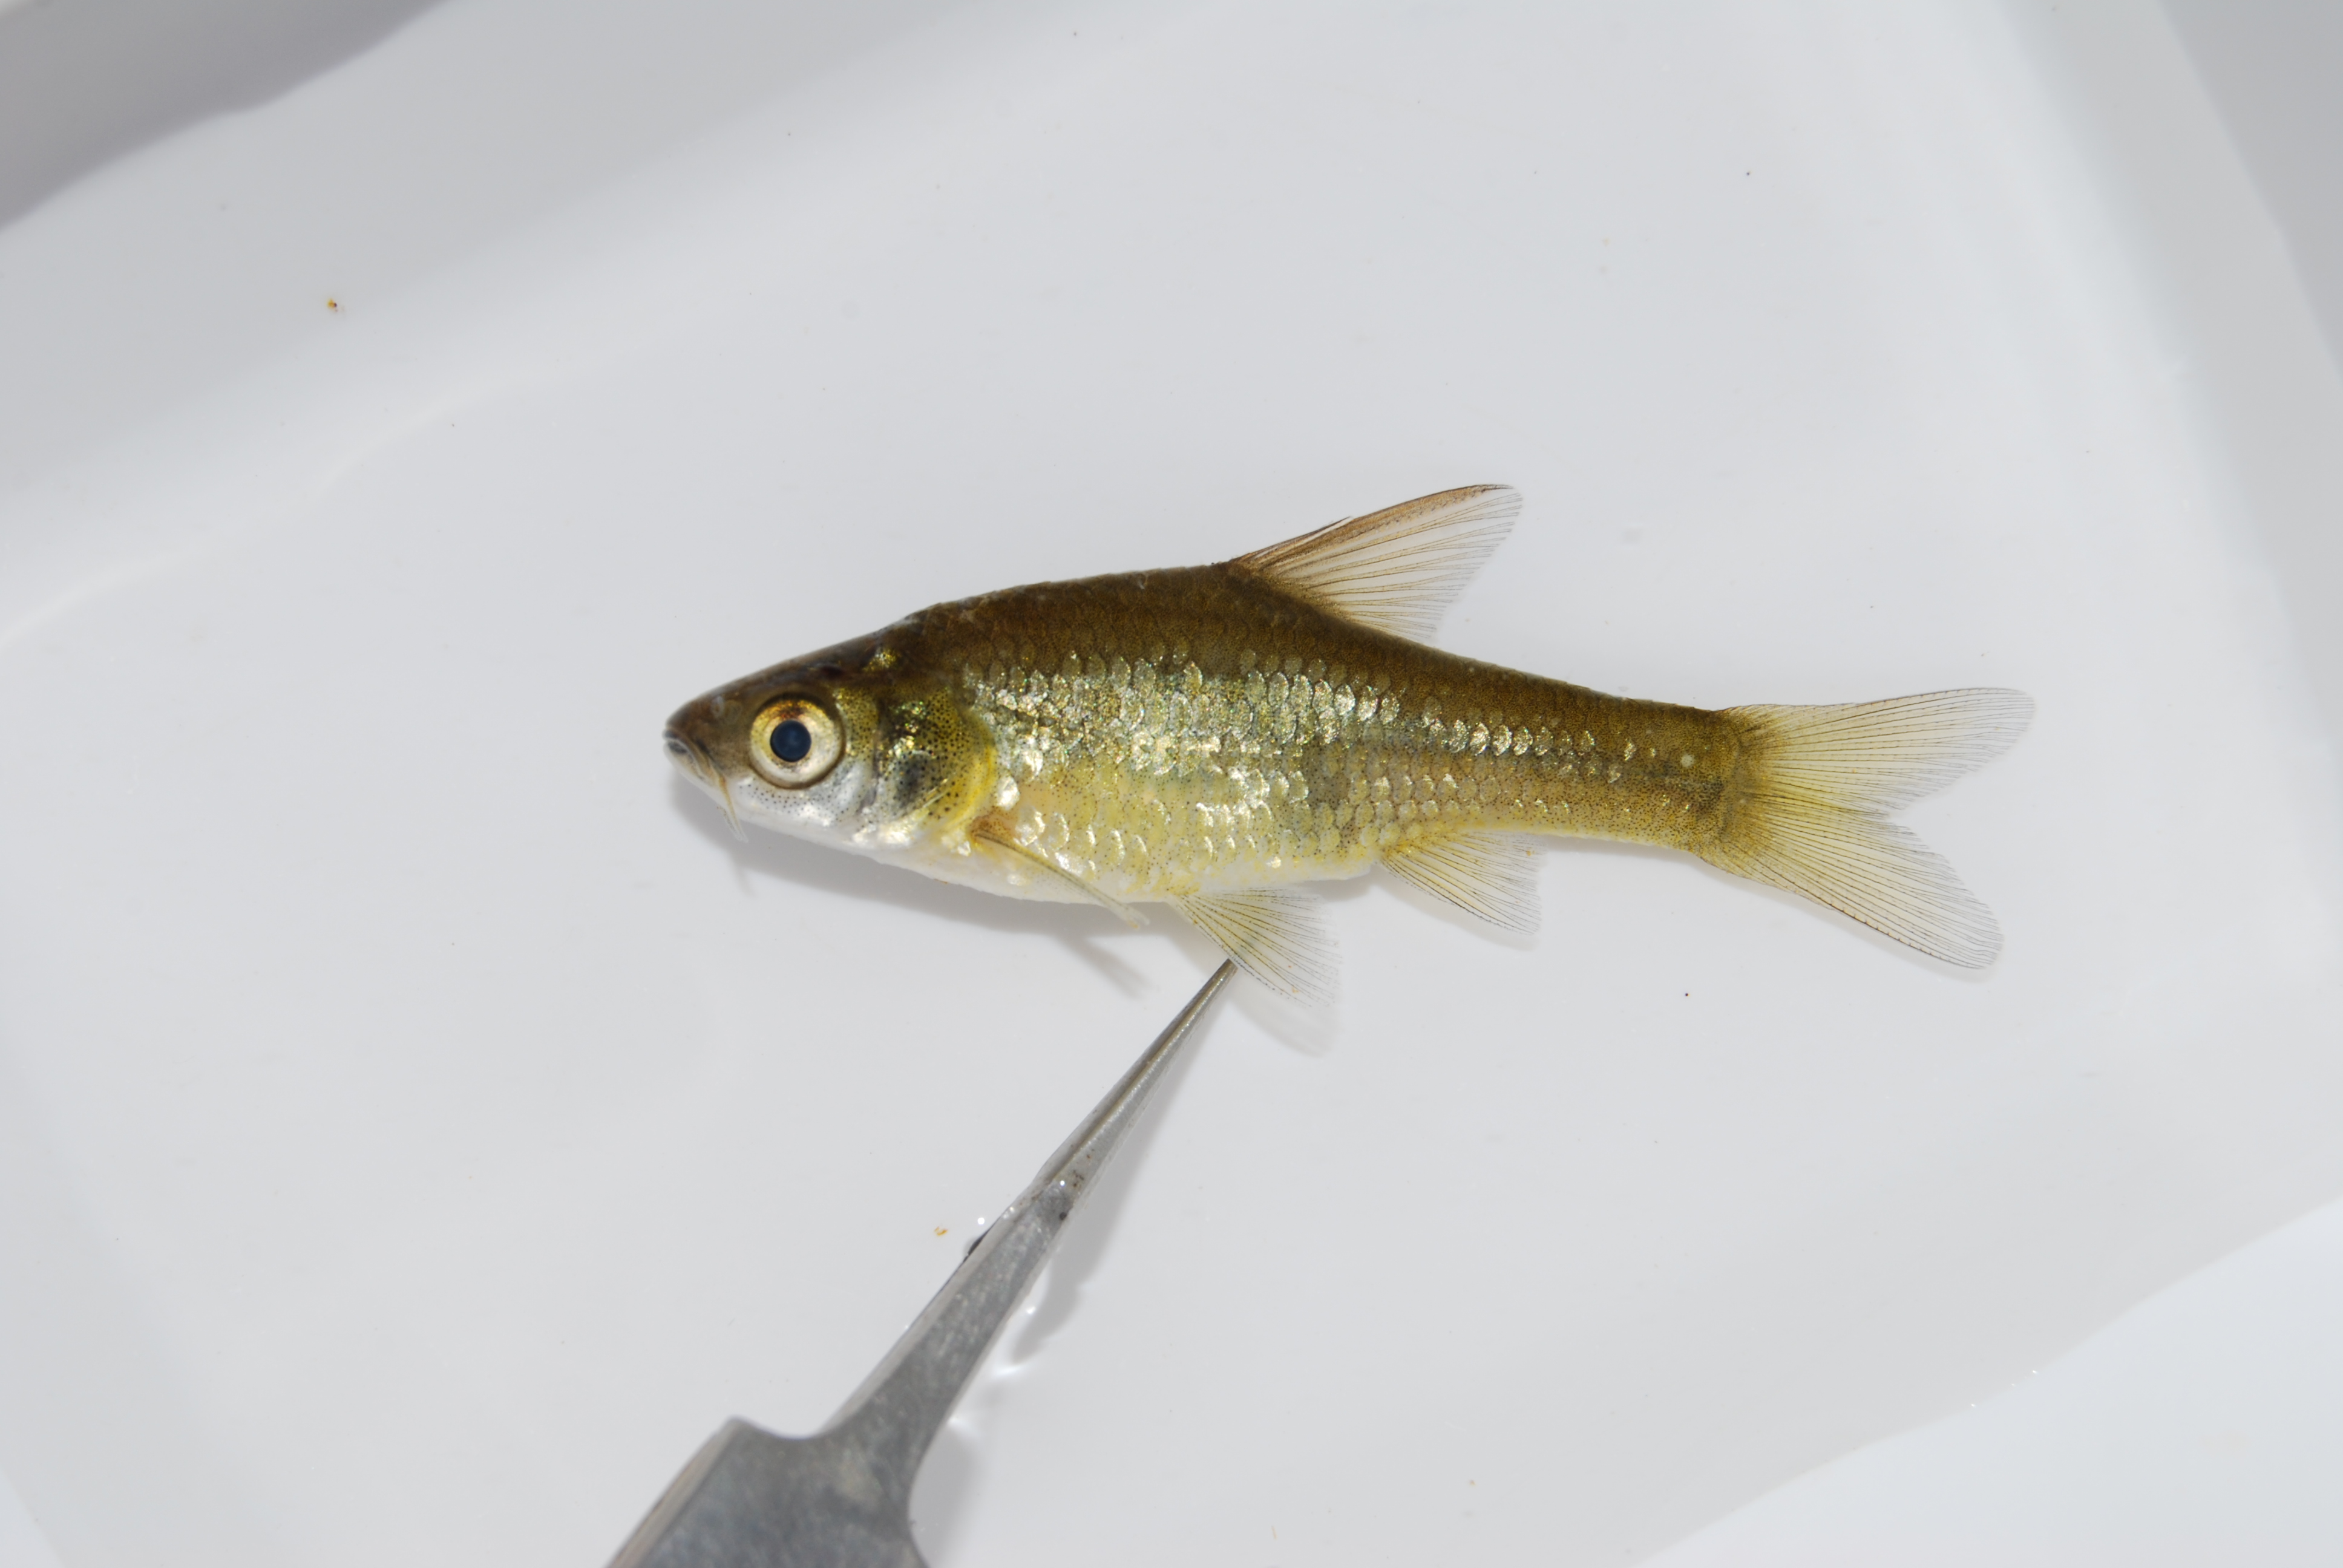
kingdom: Animalia
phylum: Chordata
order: Cypriniformes
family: Cyprinidae
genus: Enteromius
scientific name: Enteromius paludinosus
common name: Straightfin barb
